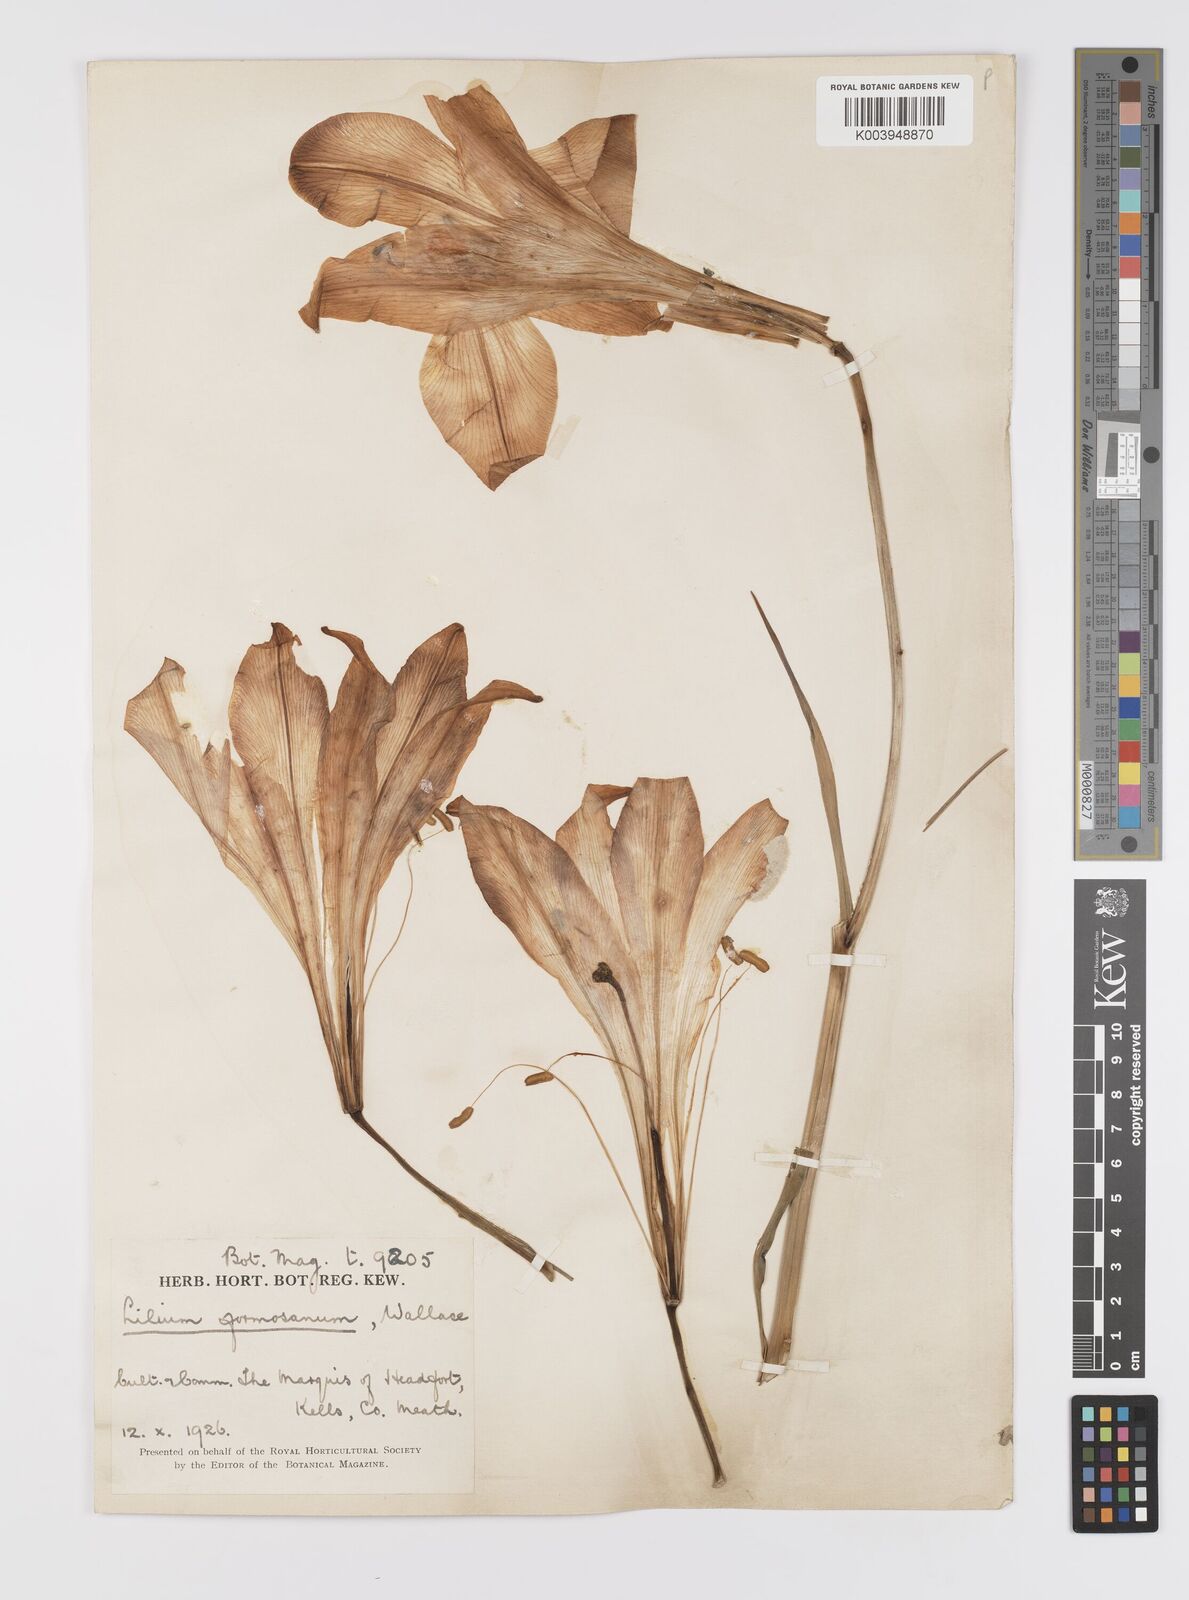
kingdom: Plantae
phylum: Tracheophyta
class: Liliopsida
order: Liliales
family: Liliaceae
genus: Lilium
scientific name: Lilium formosanum
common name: Formosa lily
